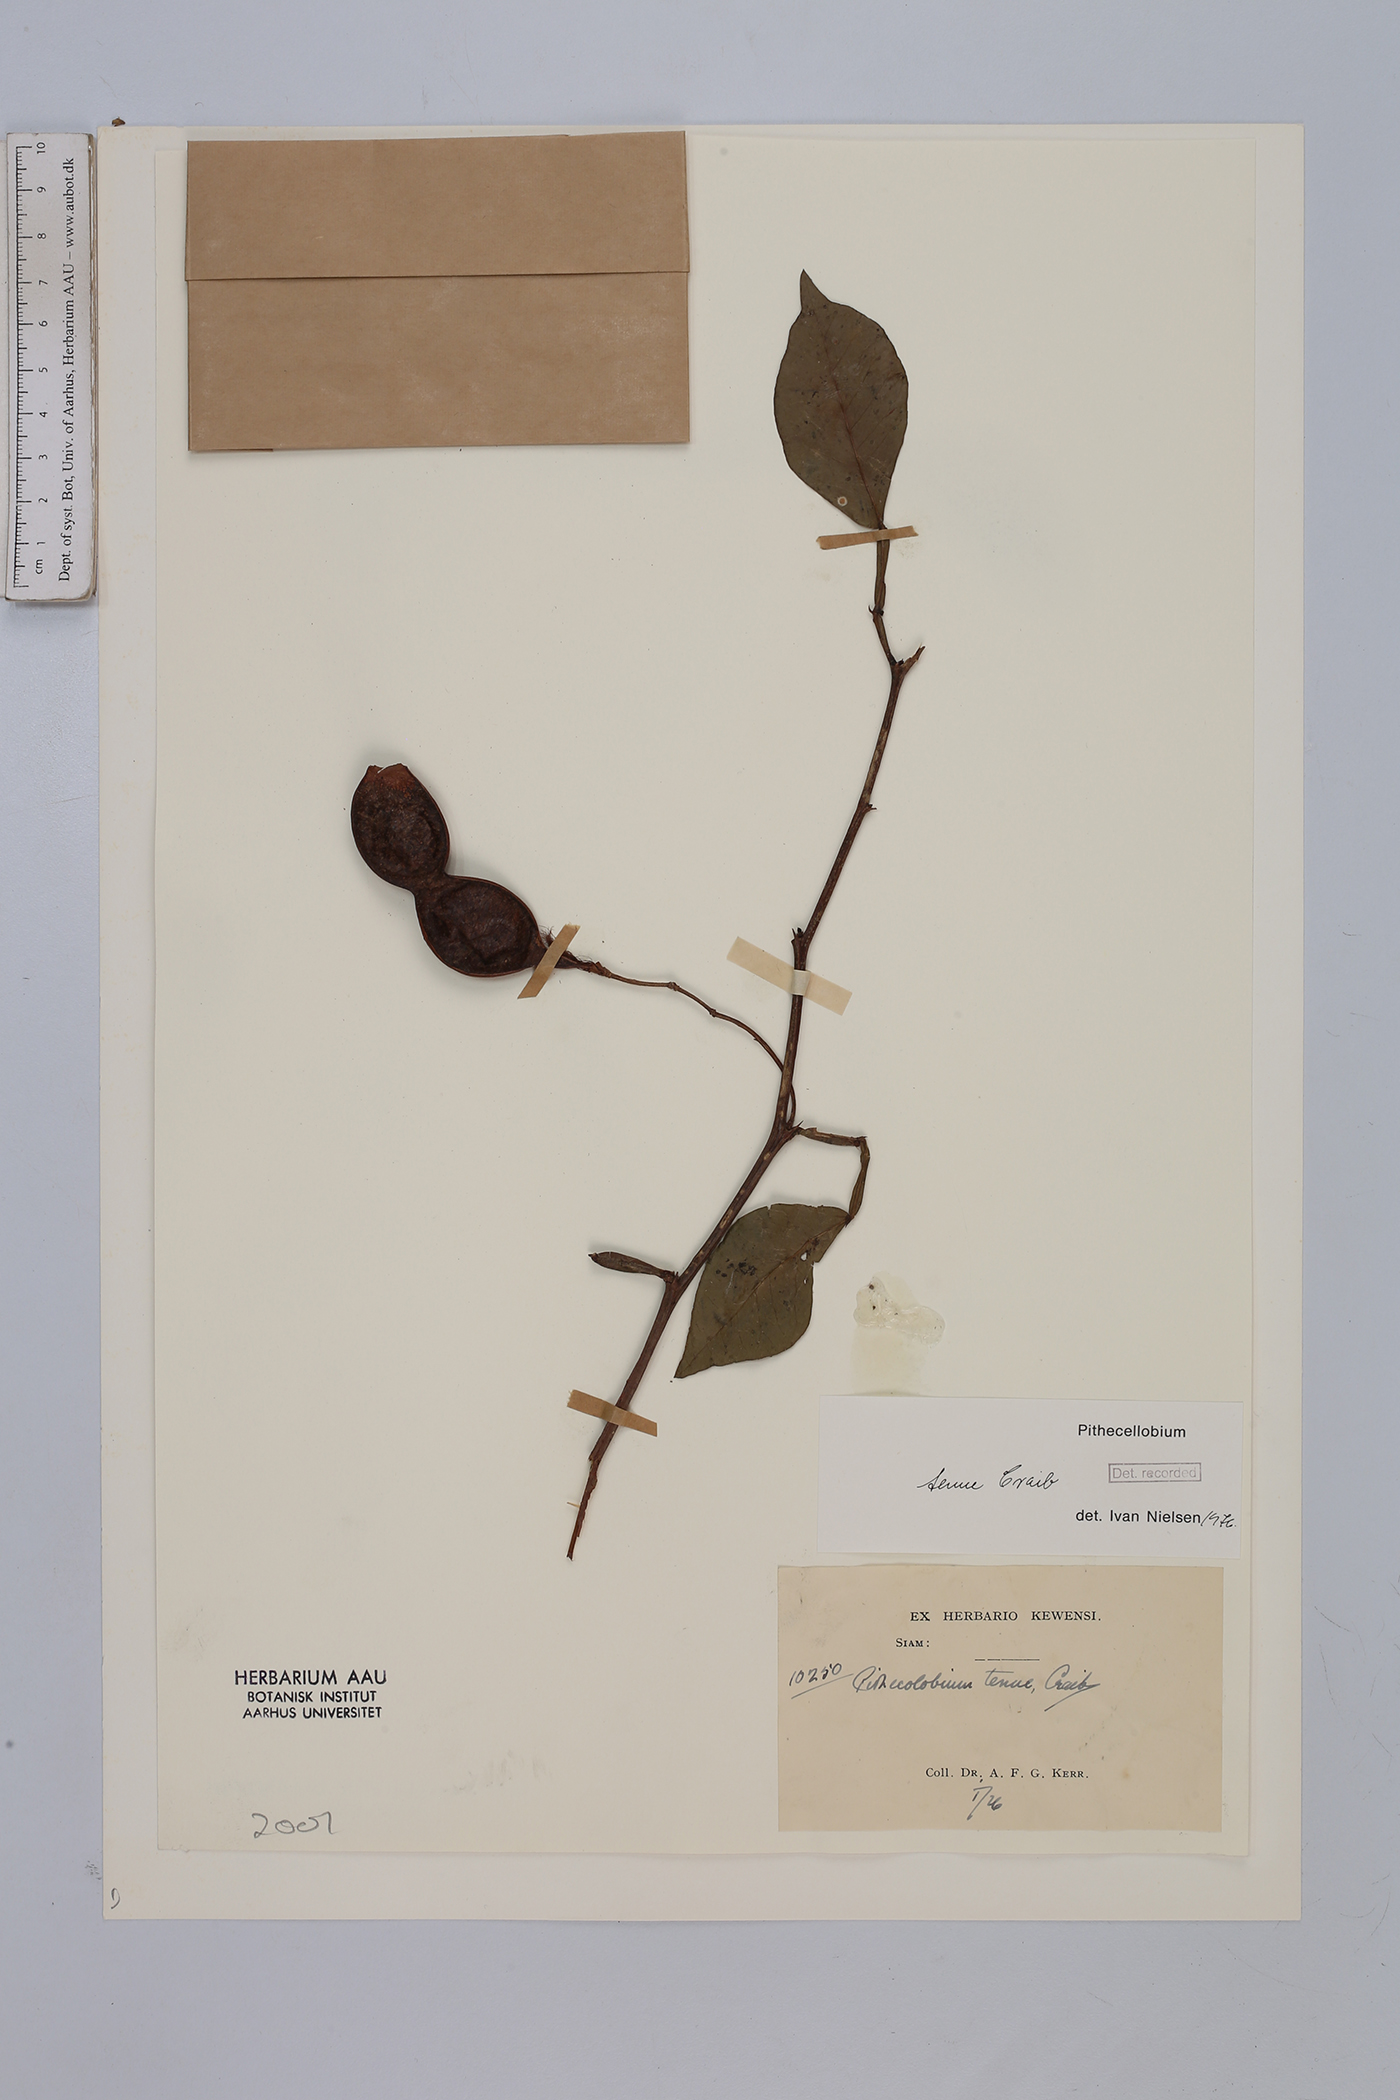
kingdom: Plantae
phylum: Tracheophyta
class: Magnoliopsida
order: Fabales
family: Fabaceae
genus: Thailentadopsis
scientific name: Thailentadopsis tenuis
